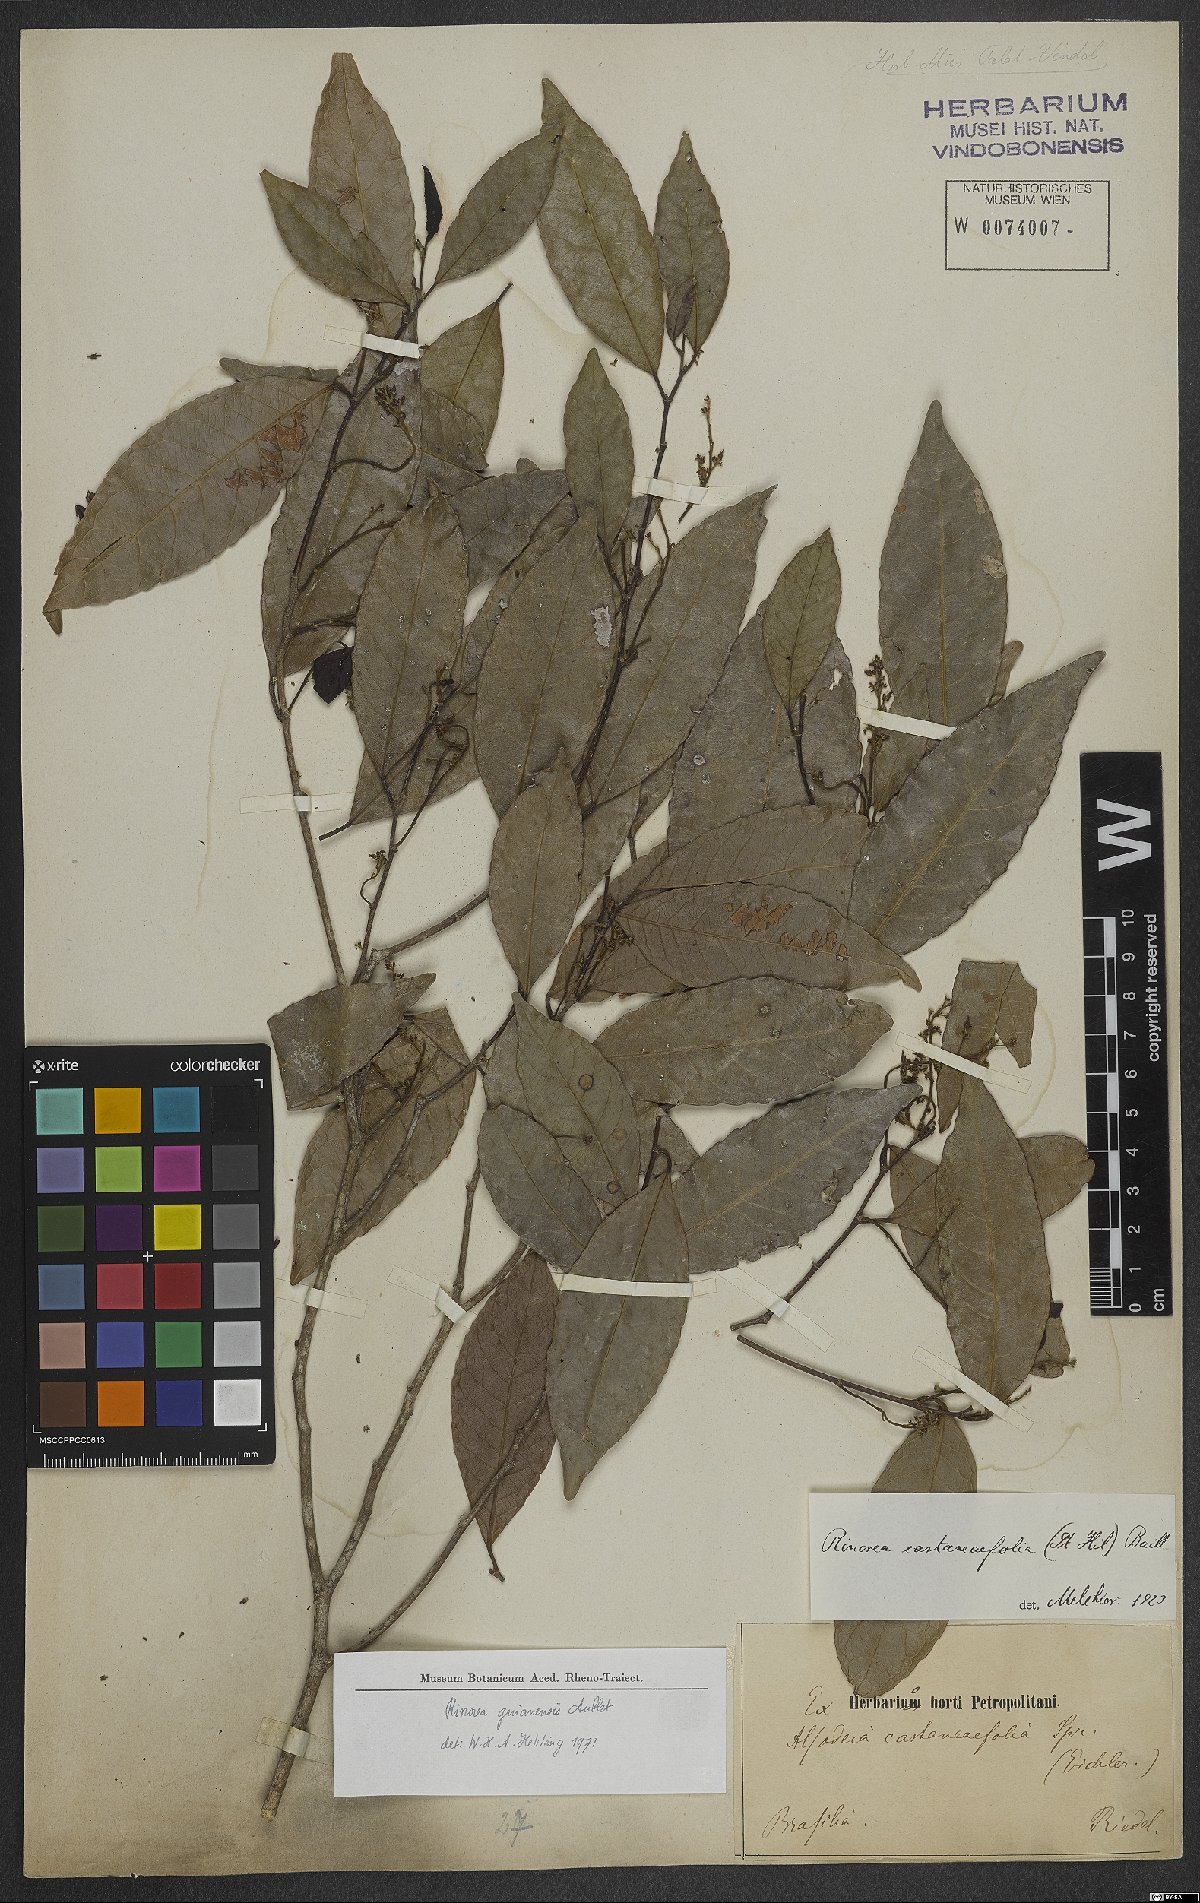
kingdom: Plantae
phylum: Tracheophyta
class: Magnoliopsida
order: Malpighiales
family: Violaceae
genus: Rinorea
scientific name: Rinorea guianensis
